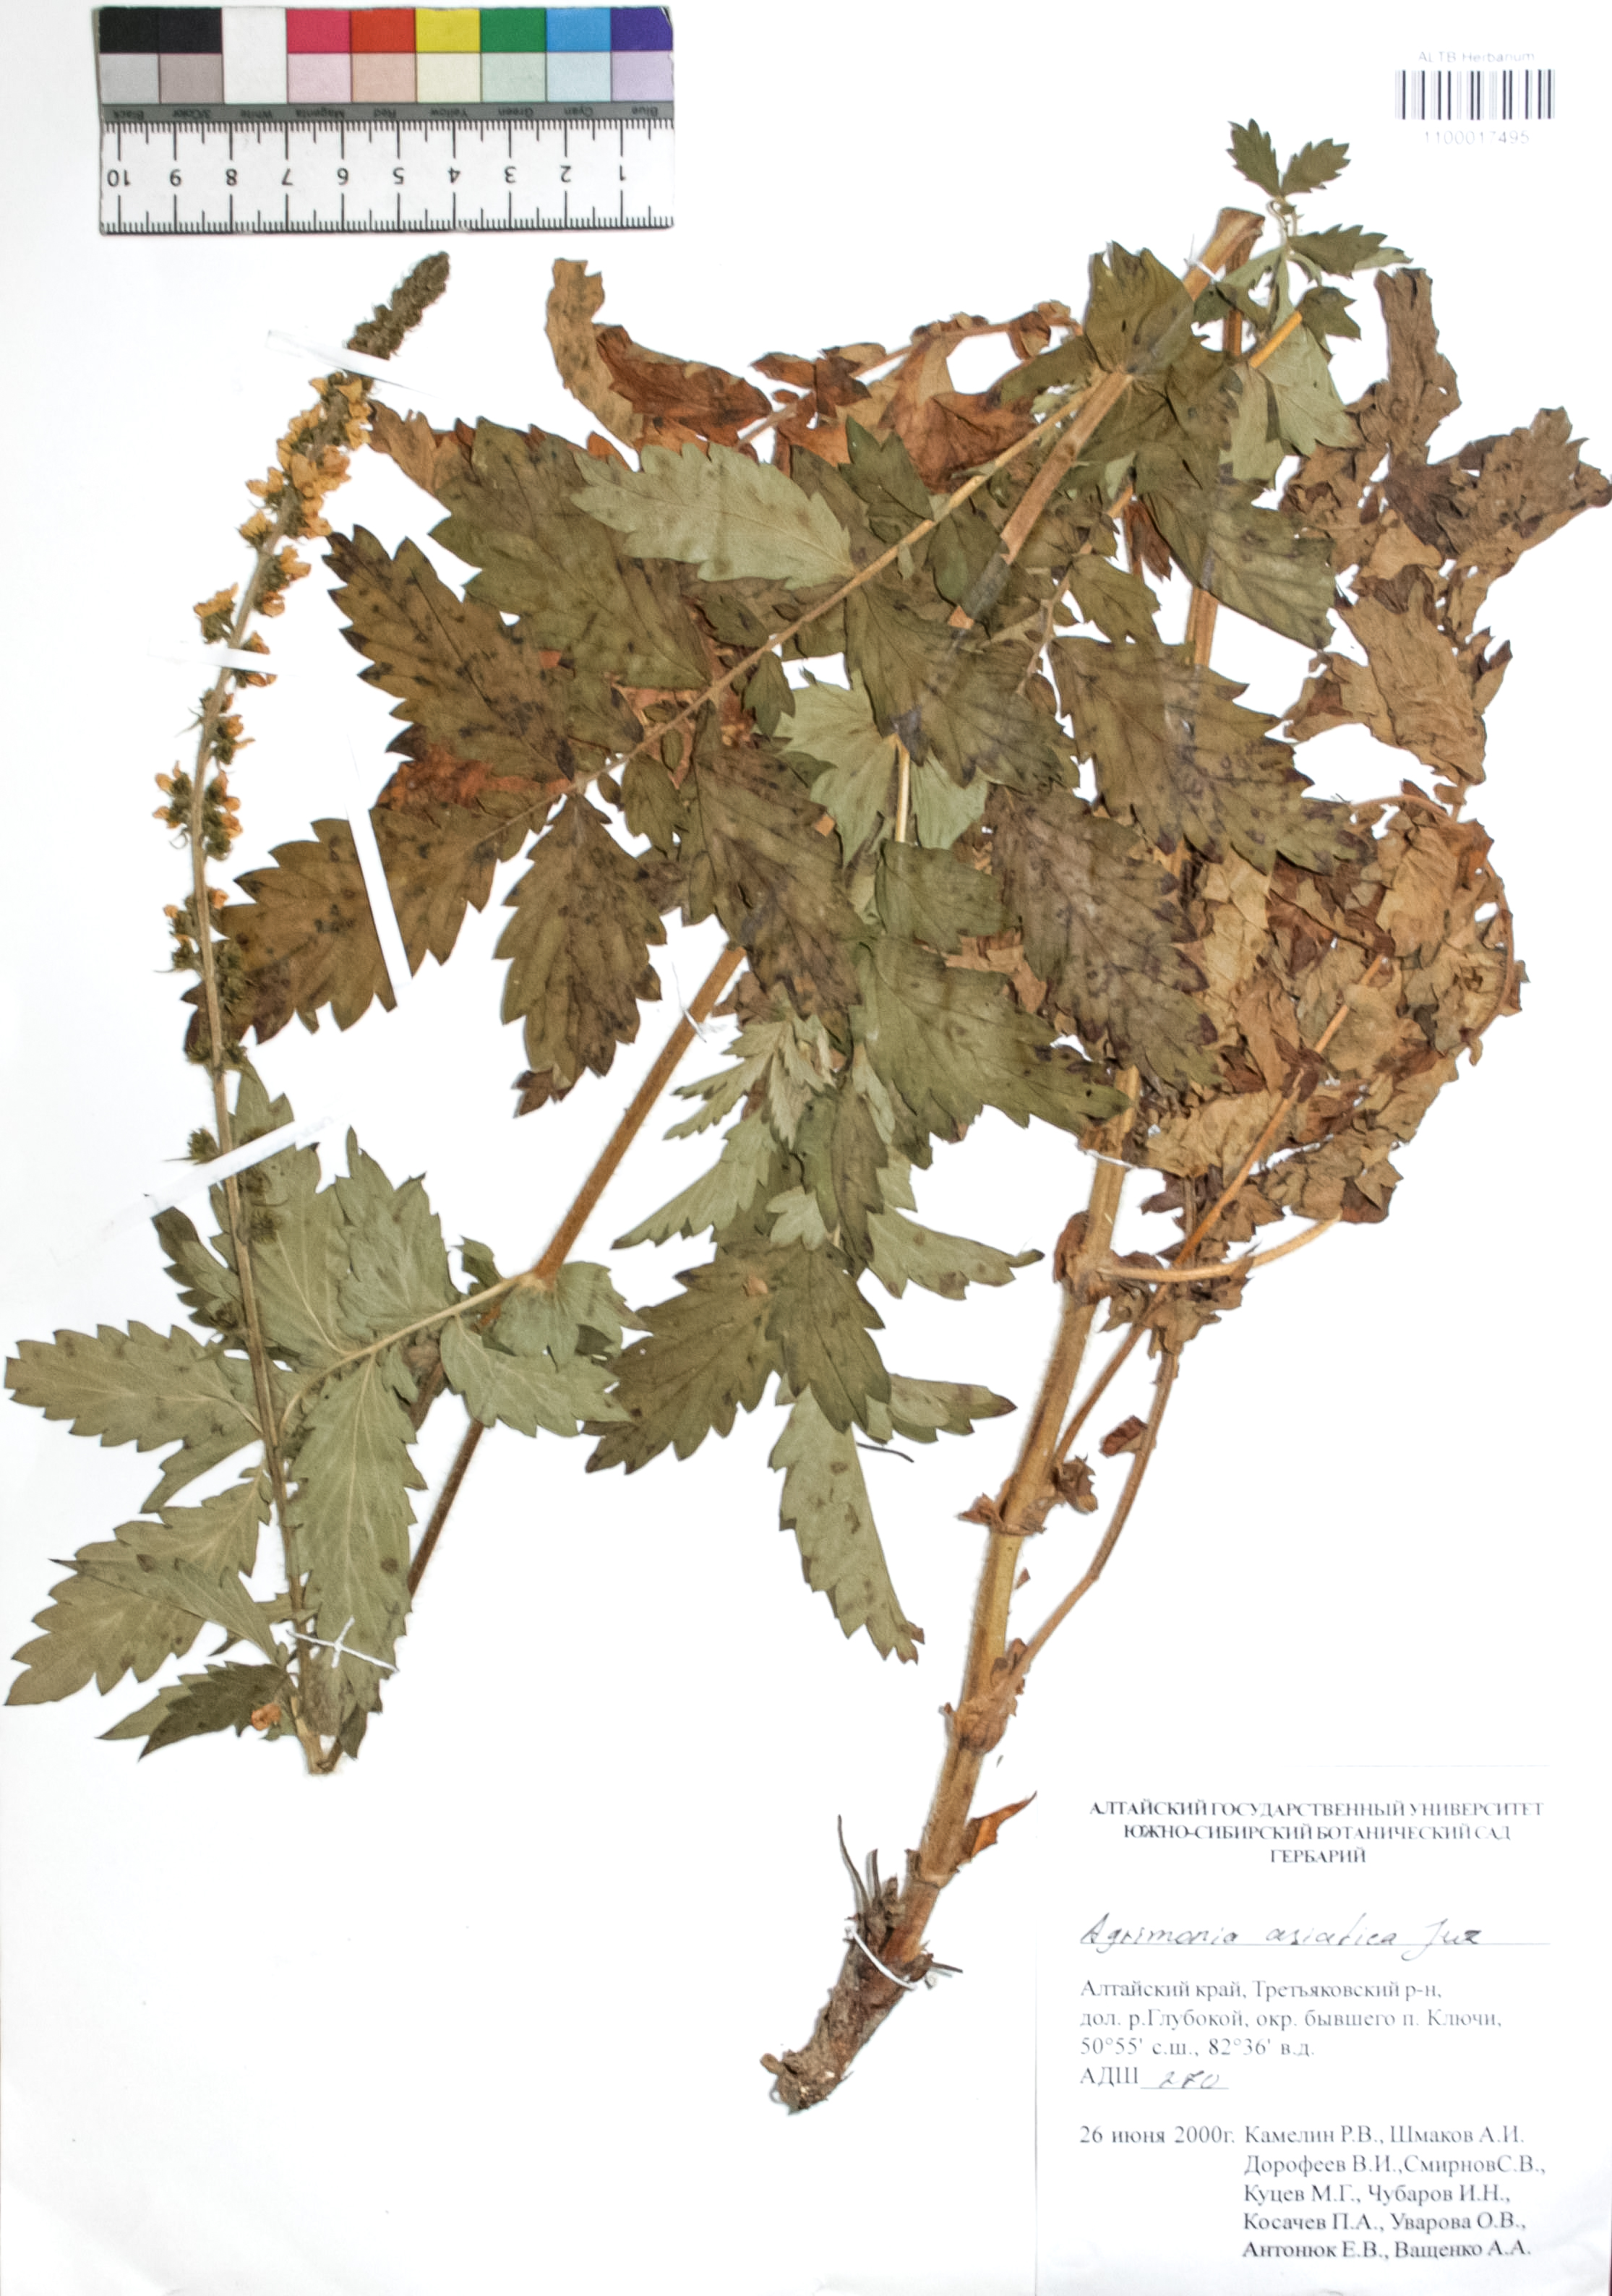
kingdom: Plantae
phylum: Tracheophyta
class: Magnoliopsida
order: Rosales
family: Rosaceae
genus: Agrimonia
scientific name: Agrimonia eupatoria
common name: Agrimony
